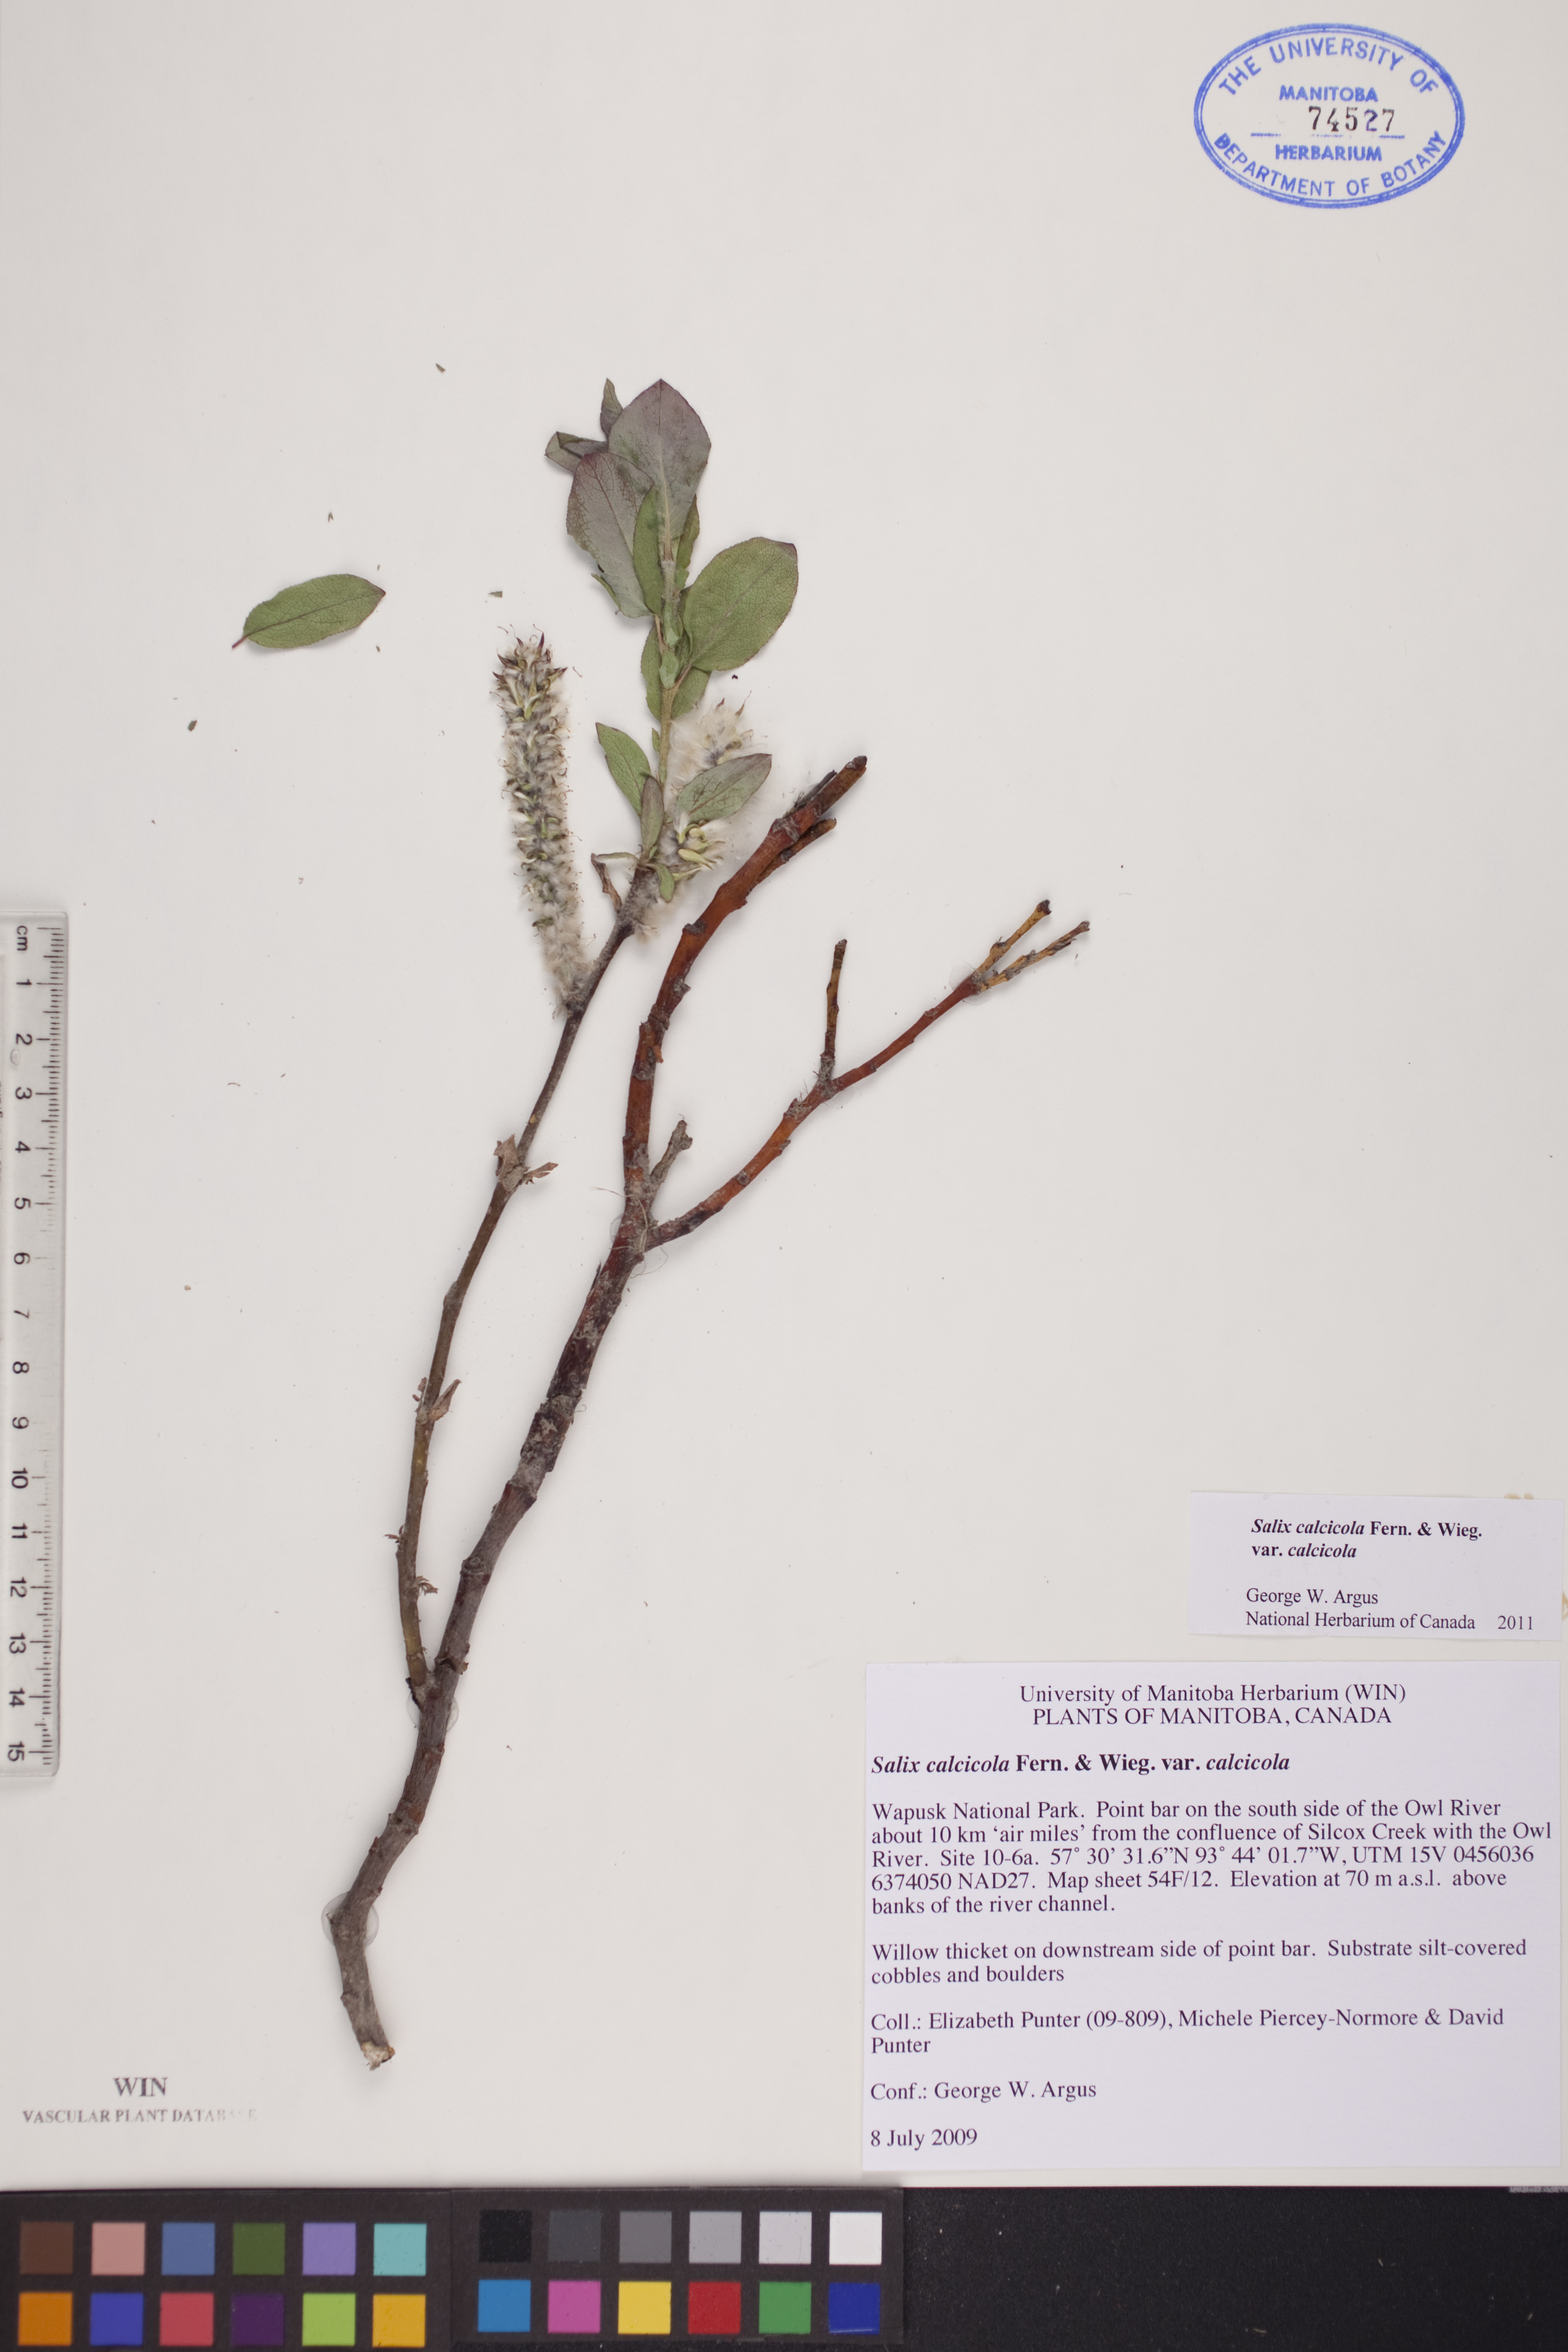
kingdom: Plantae
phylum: Tracheophyta
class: Magnoliopsida
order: Malpighiales
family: Salicaceae
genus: Salix
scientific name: Salix calcicola
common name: Calcareous willow
